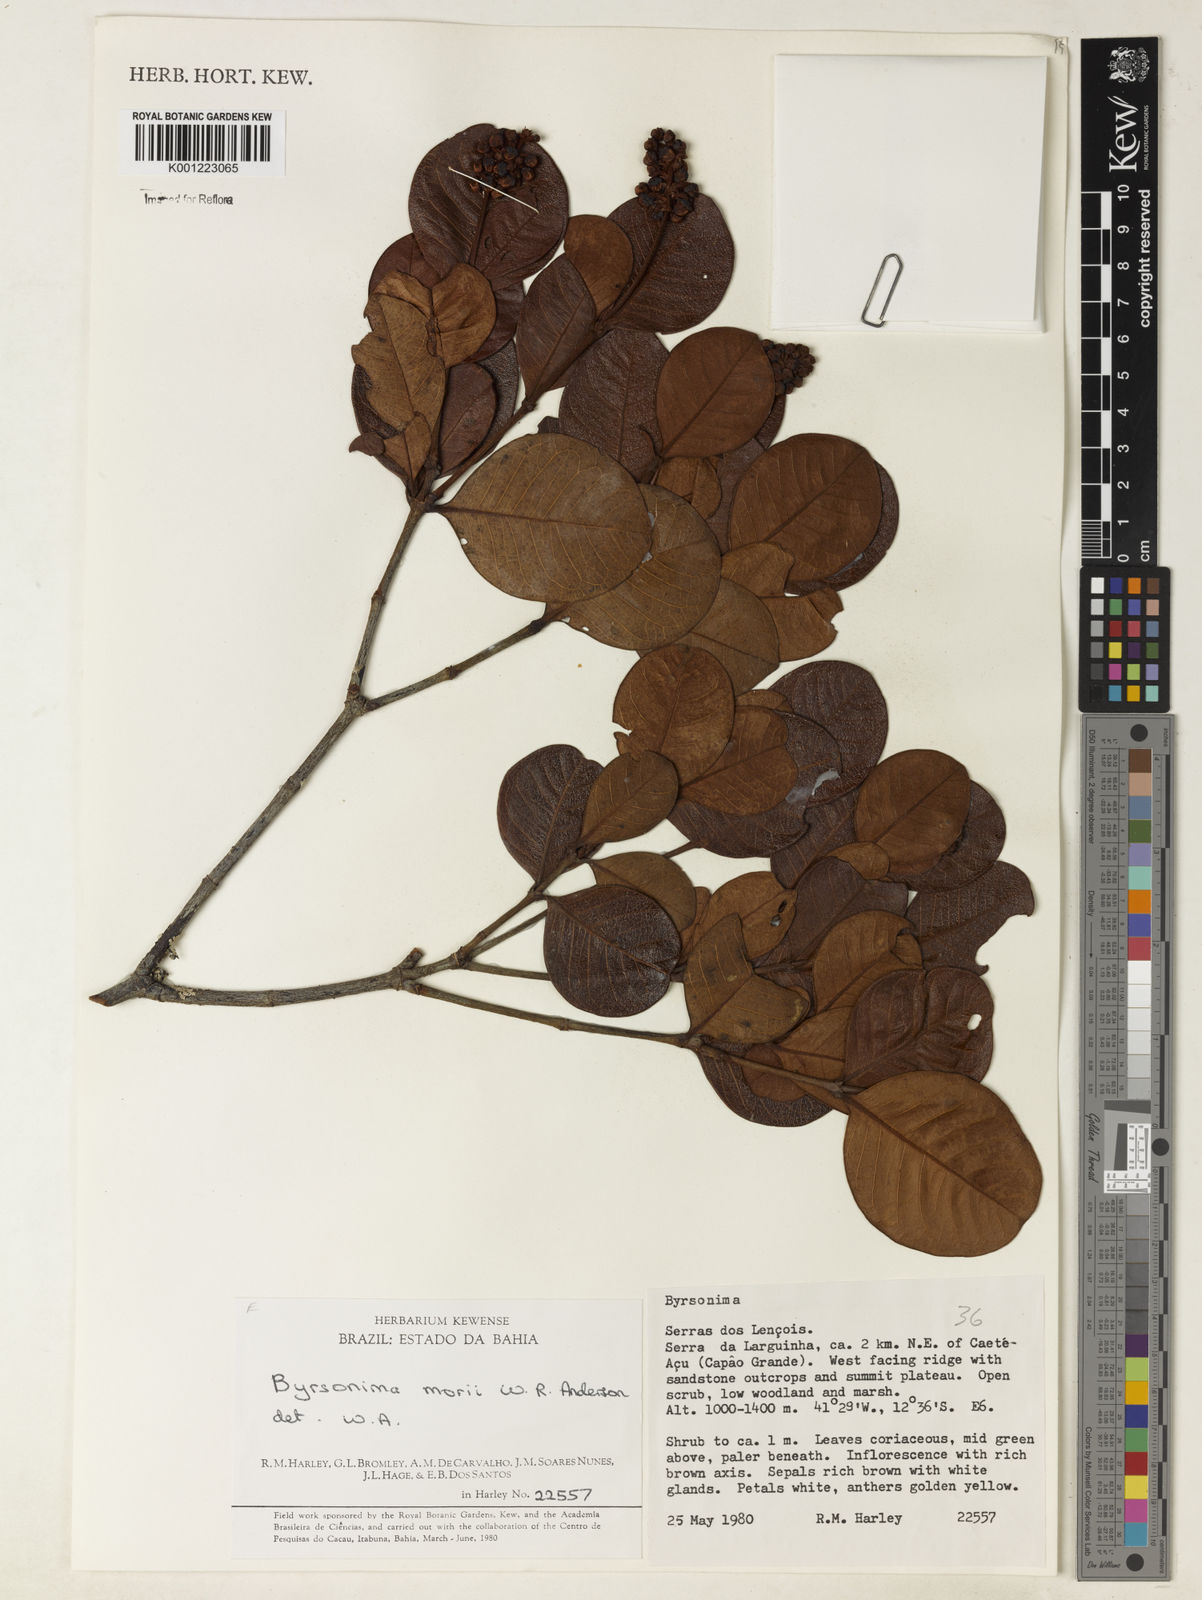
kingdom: Plantae
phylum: Tracheophyta
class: Magnoliopsida
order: Malpighiales
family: Malpighiaceae
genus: Byrsonima
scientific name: Byrsonima morii
